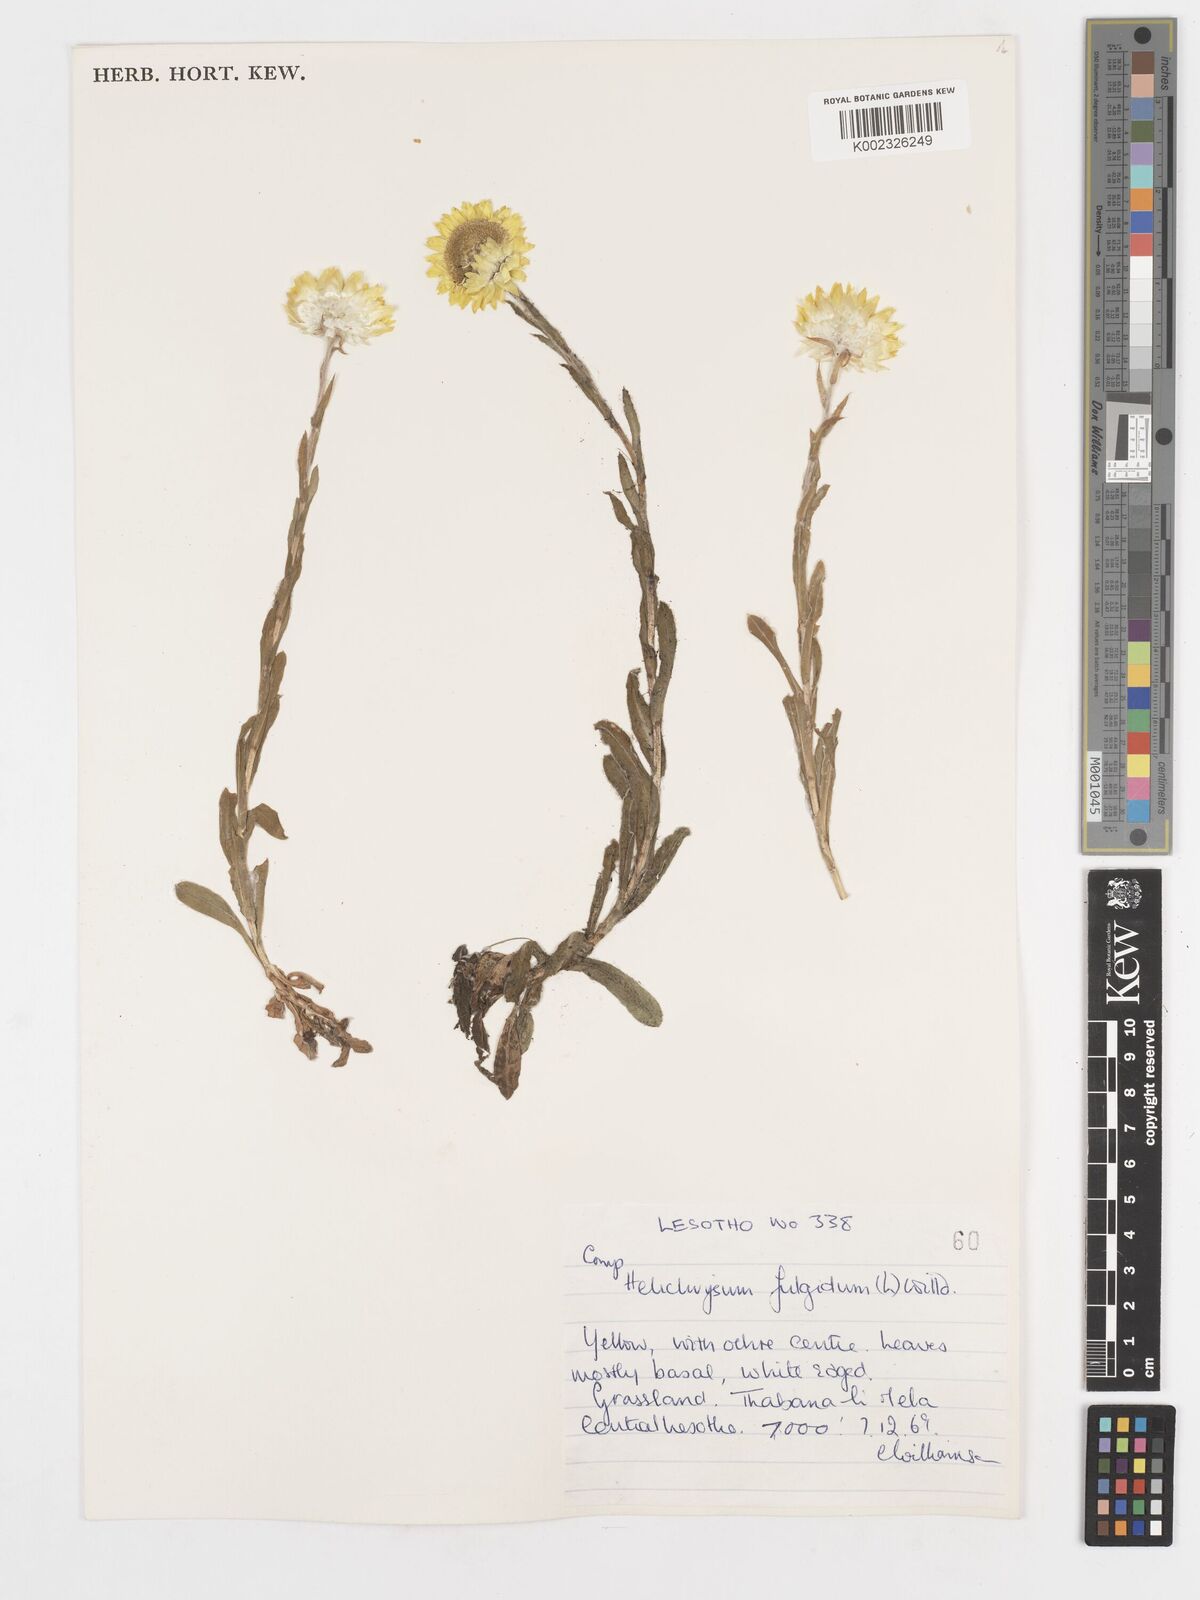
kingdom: Plantae
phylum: Tracheophyta
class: Magnoliopsida
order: Asterales
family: Asteraceae
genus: Helichrysum
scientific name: Helichrysum aureum
